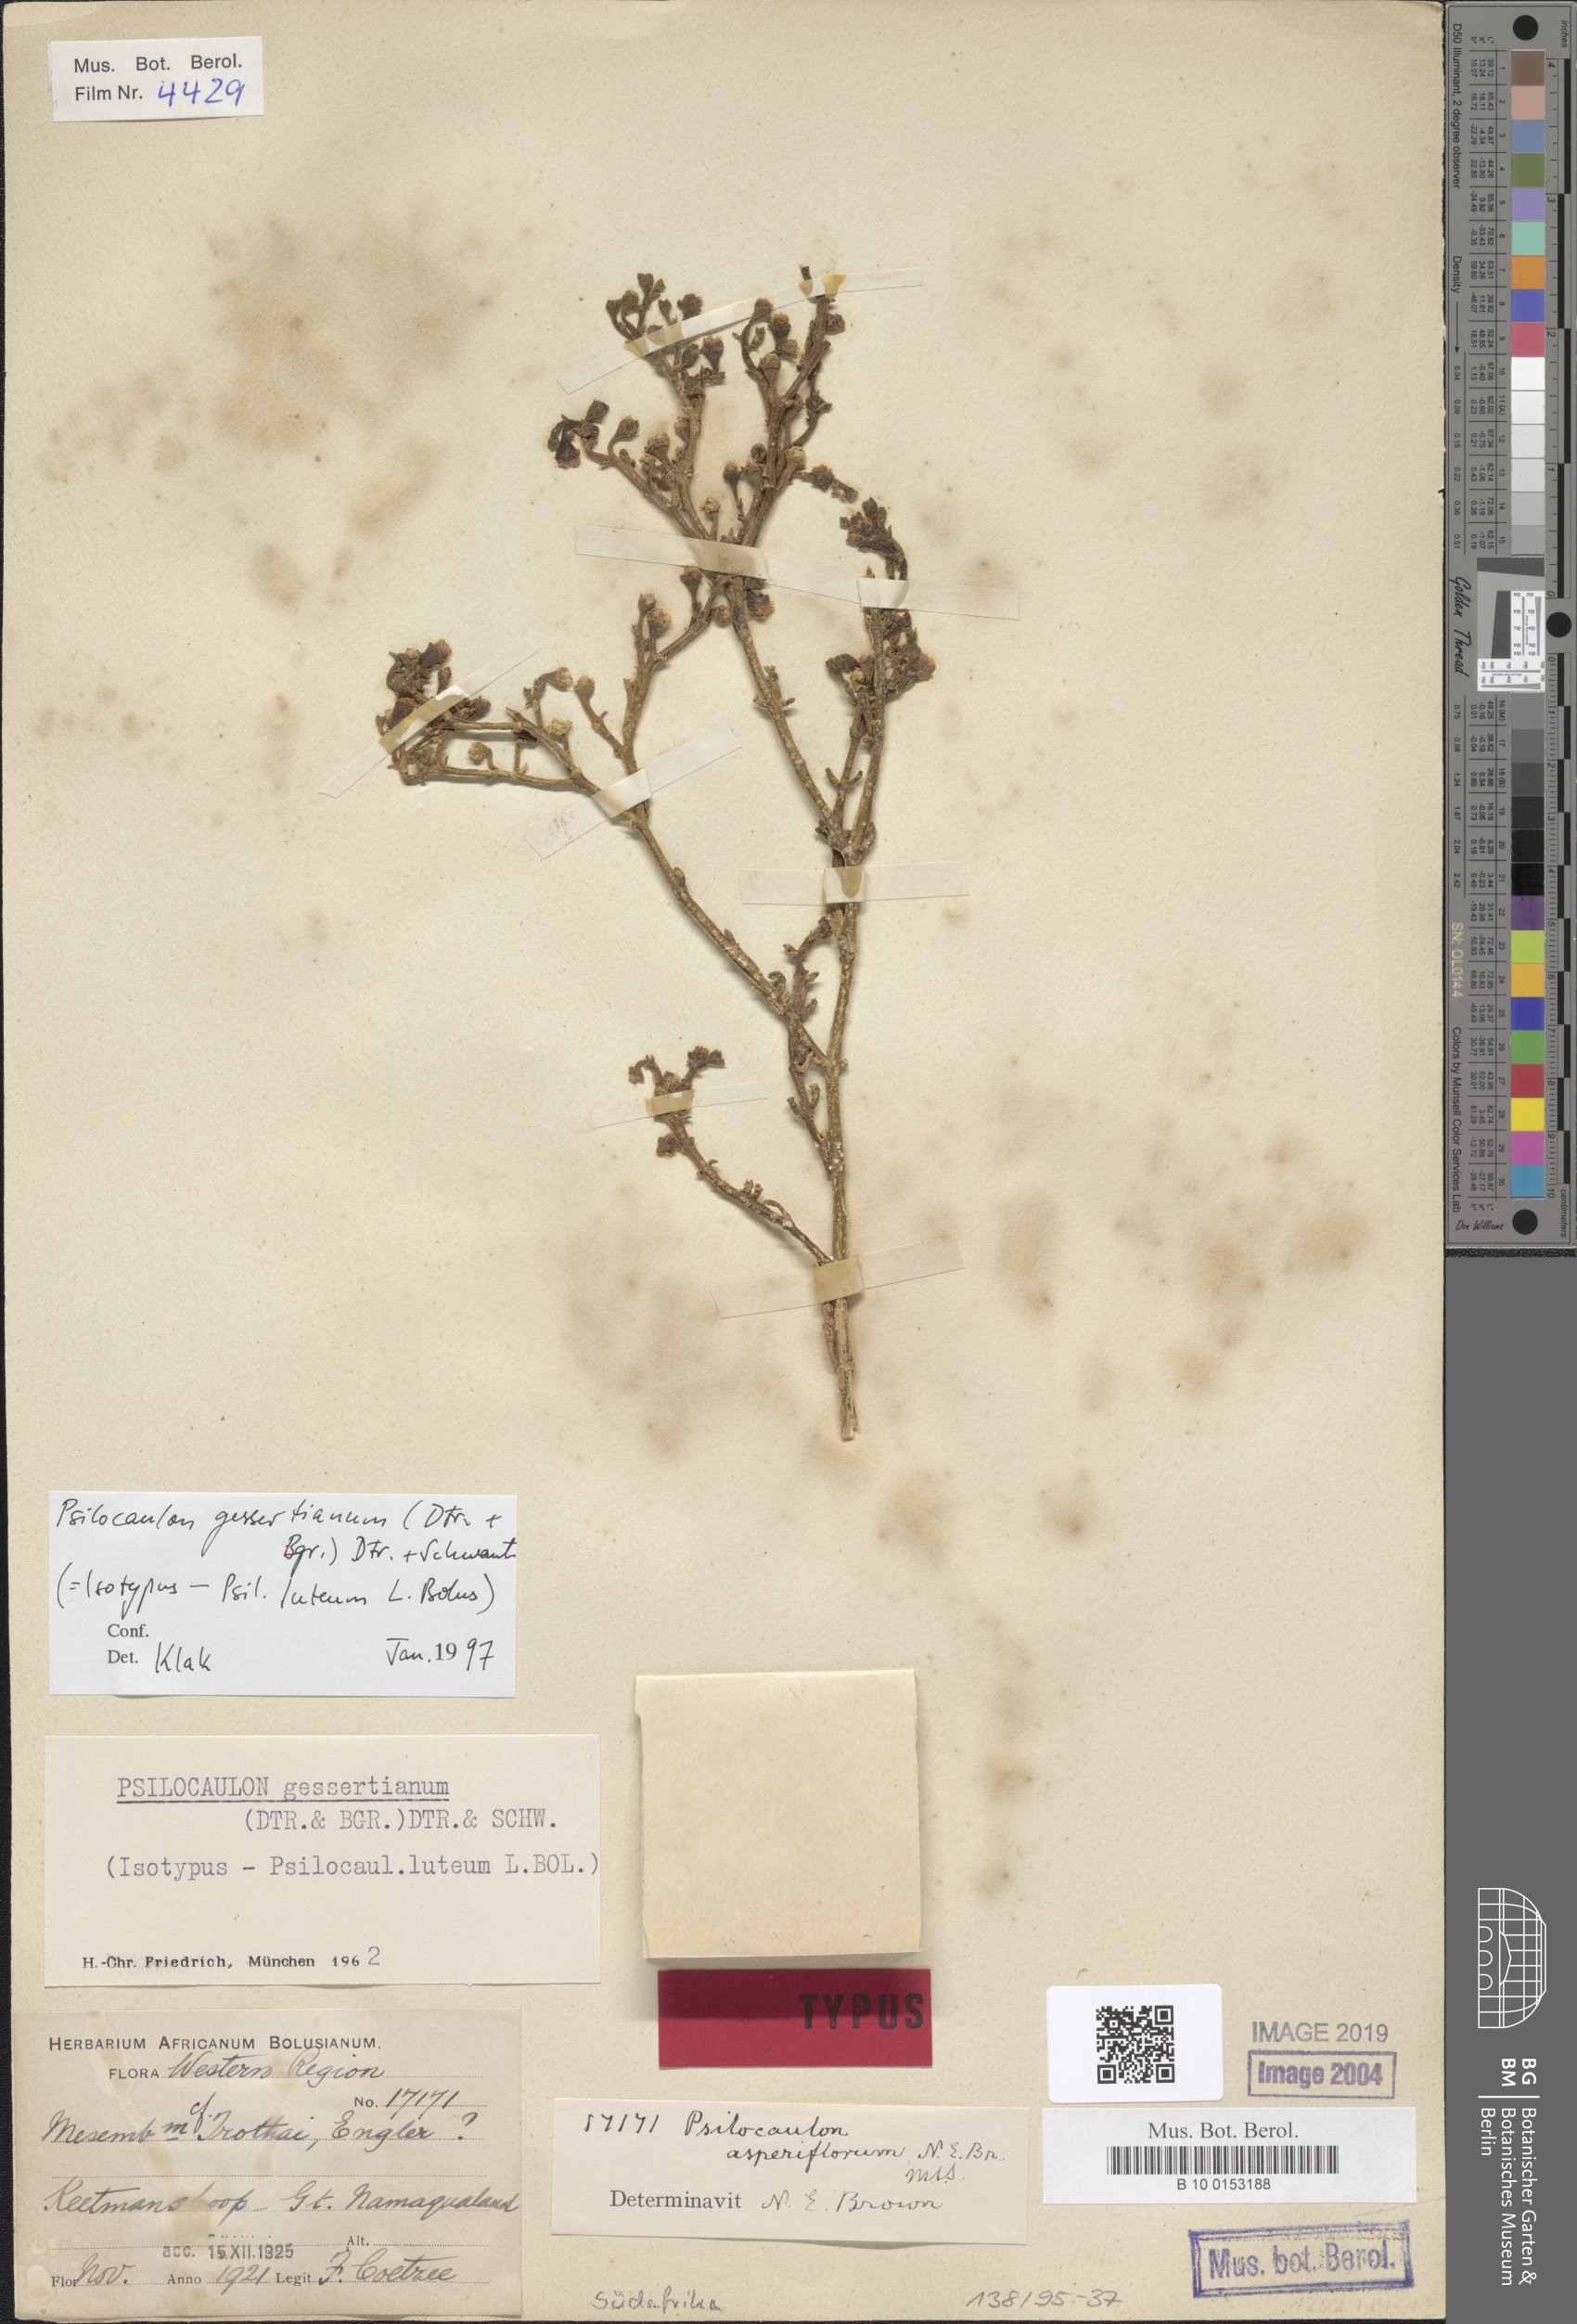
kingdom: Plantae
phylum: Tracheophyta
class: Magnoliopsida
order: Caryophyllales
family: Aizoaceae
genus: Mesembryanthemum
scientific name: Mesembryanthemum gessertianum
